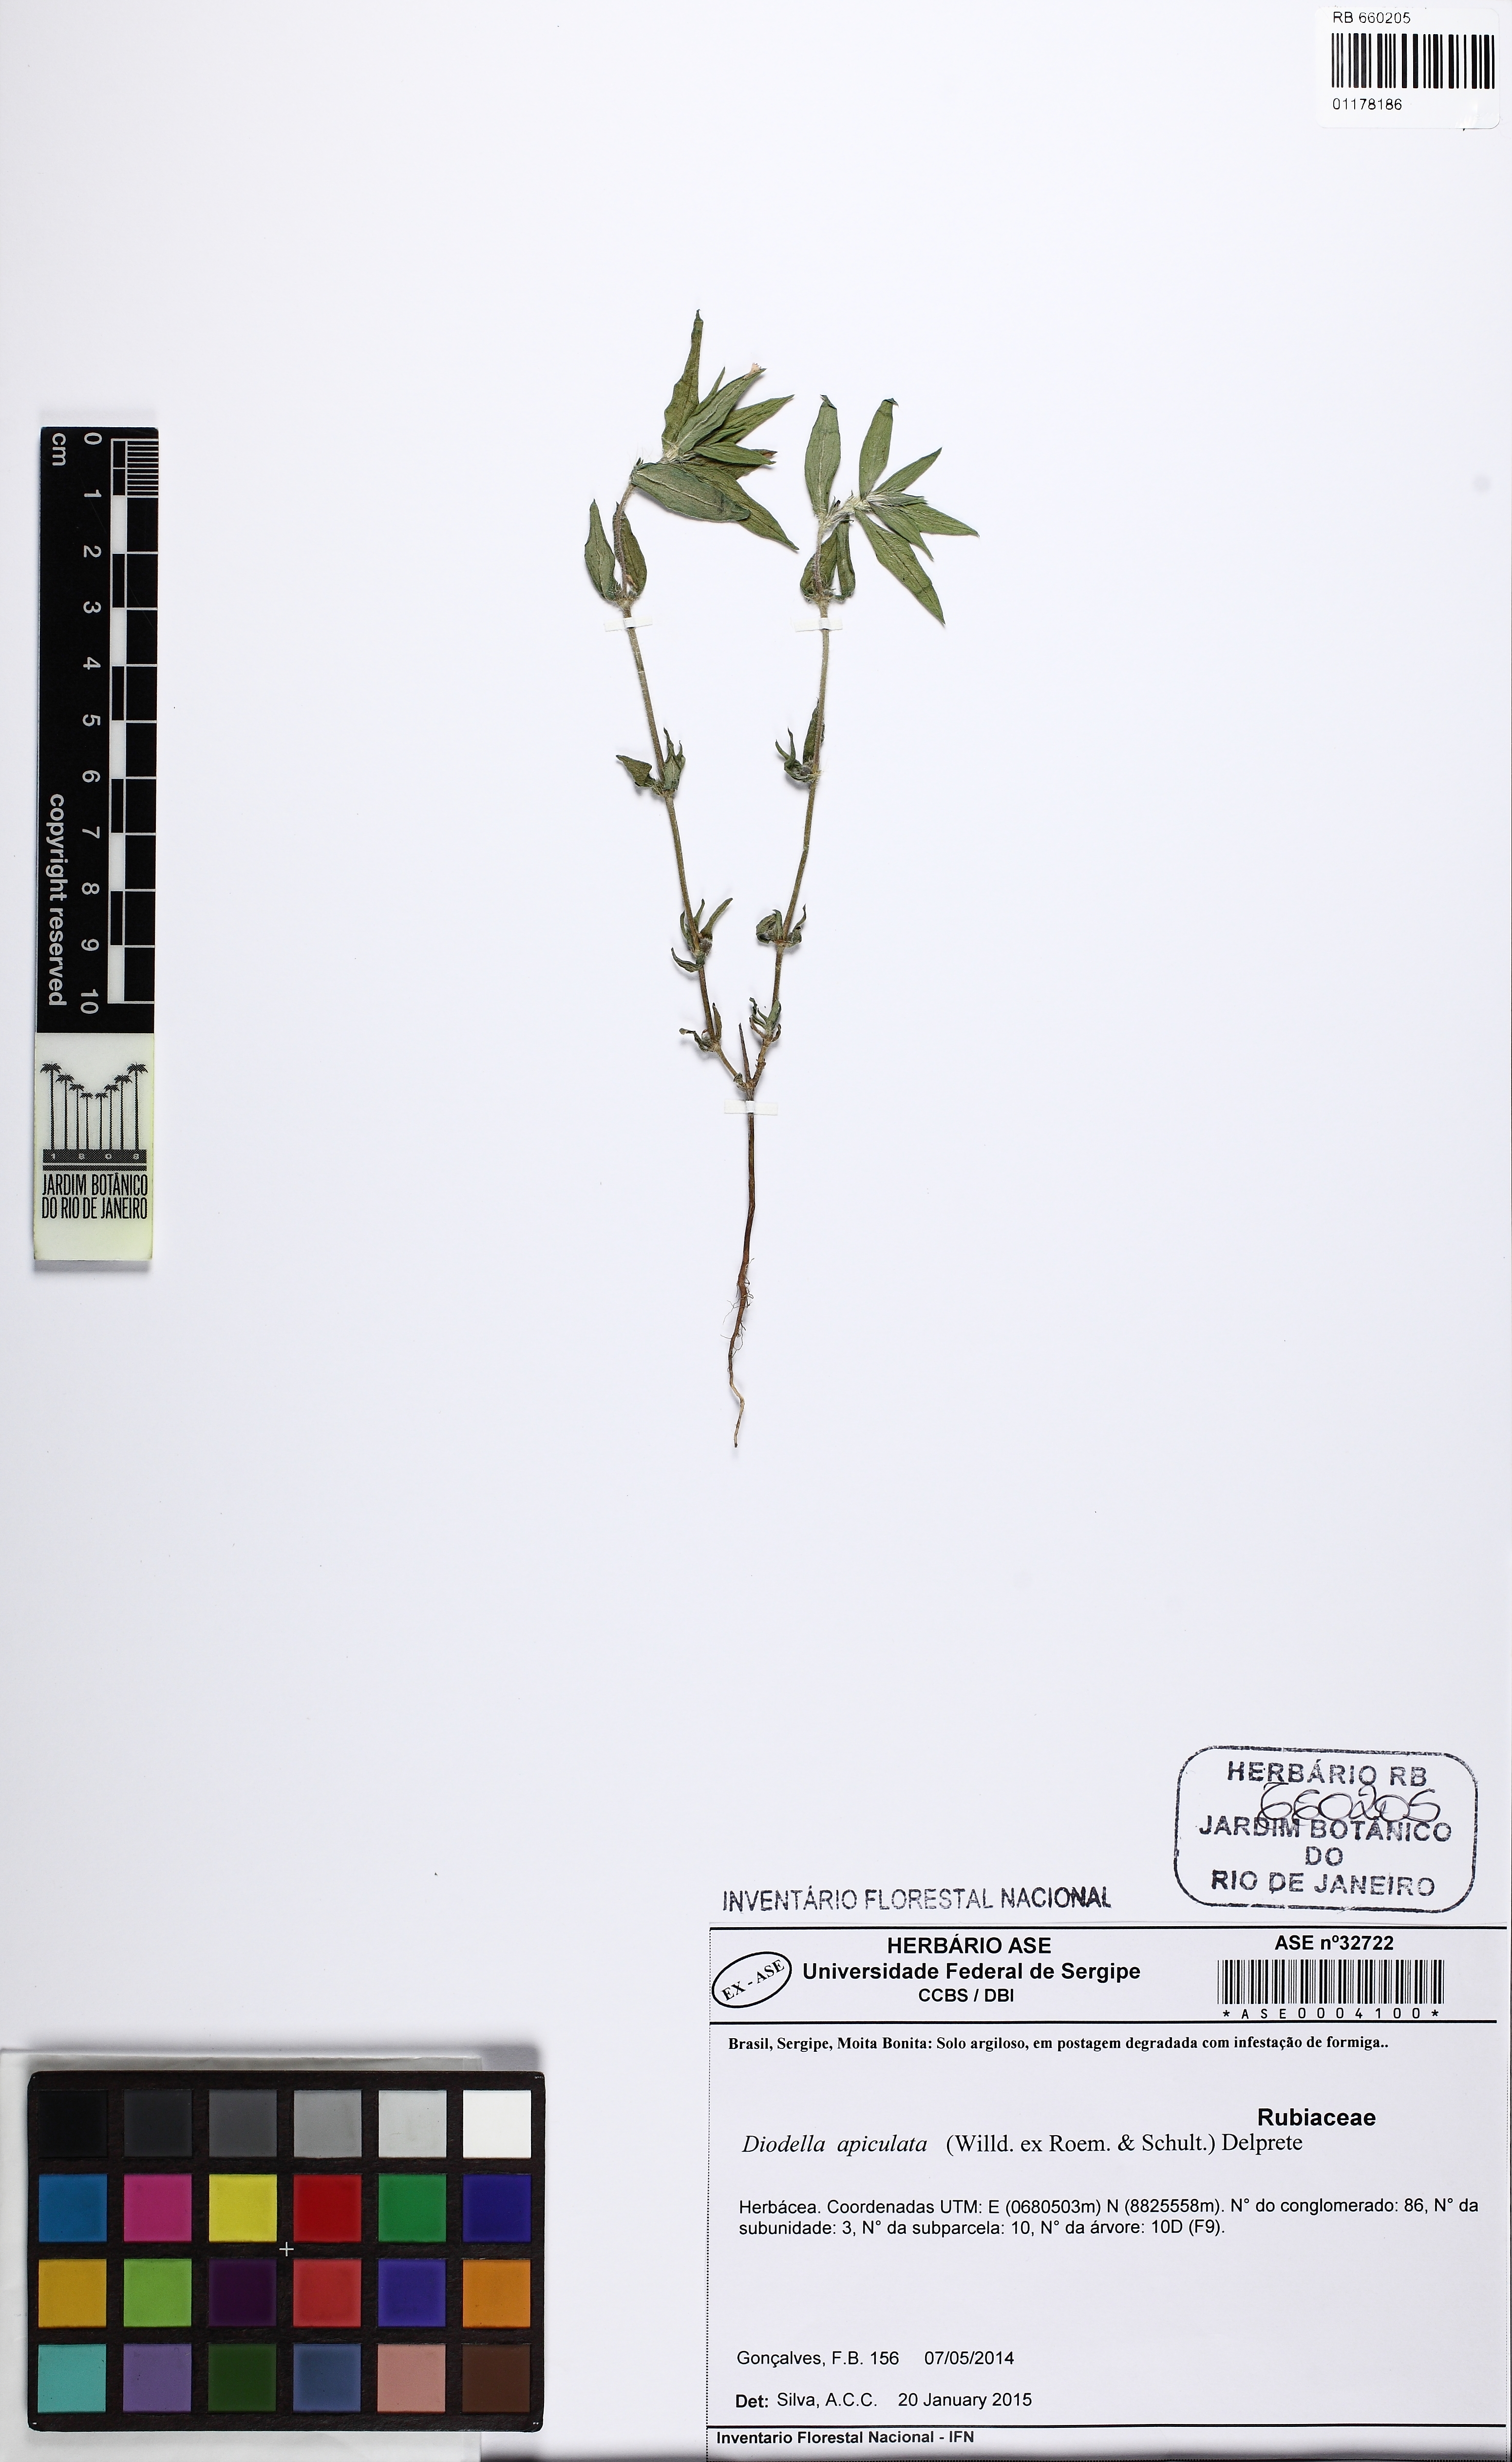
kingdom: Plantae
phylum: Tracheophyta
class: Magnoliopsida
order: Gentianales
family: Rubiaceae
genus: Hexasepalum
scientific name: Hexasepalum apiculatum
